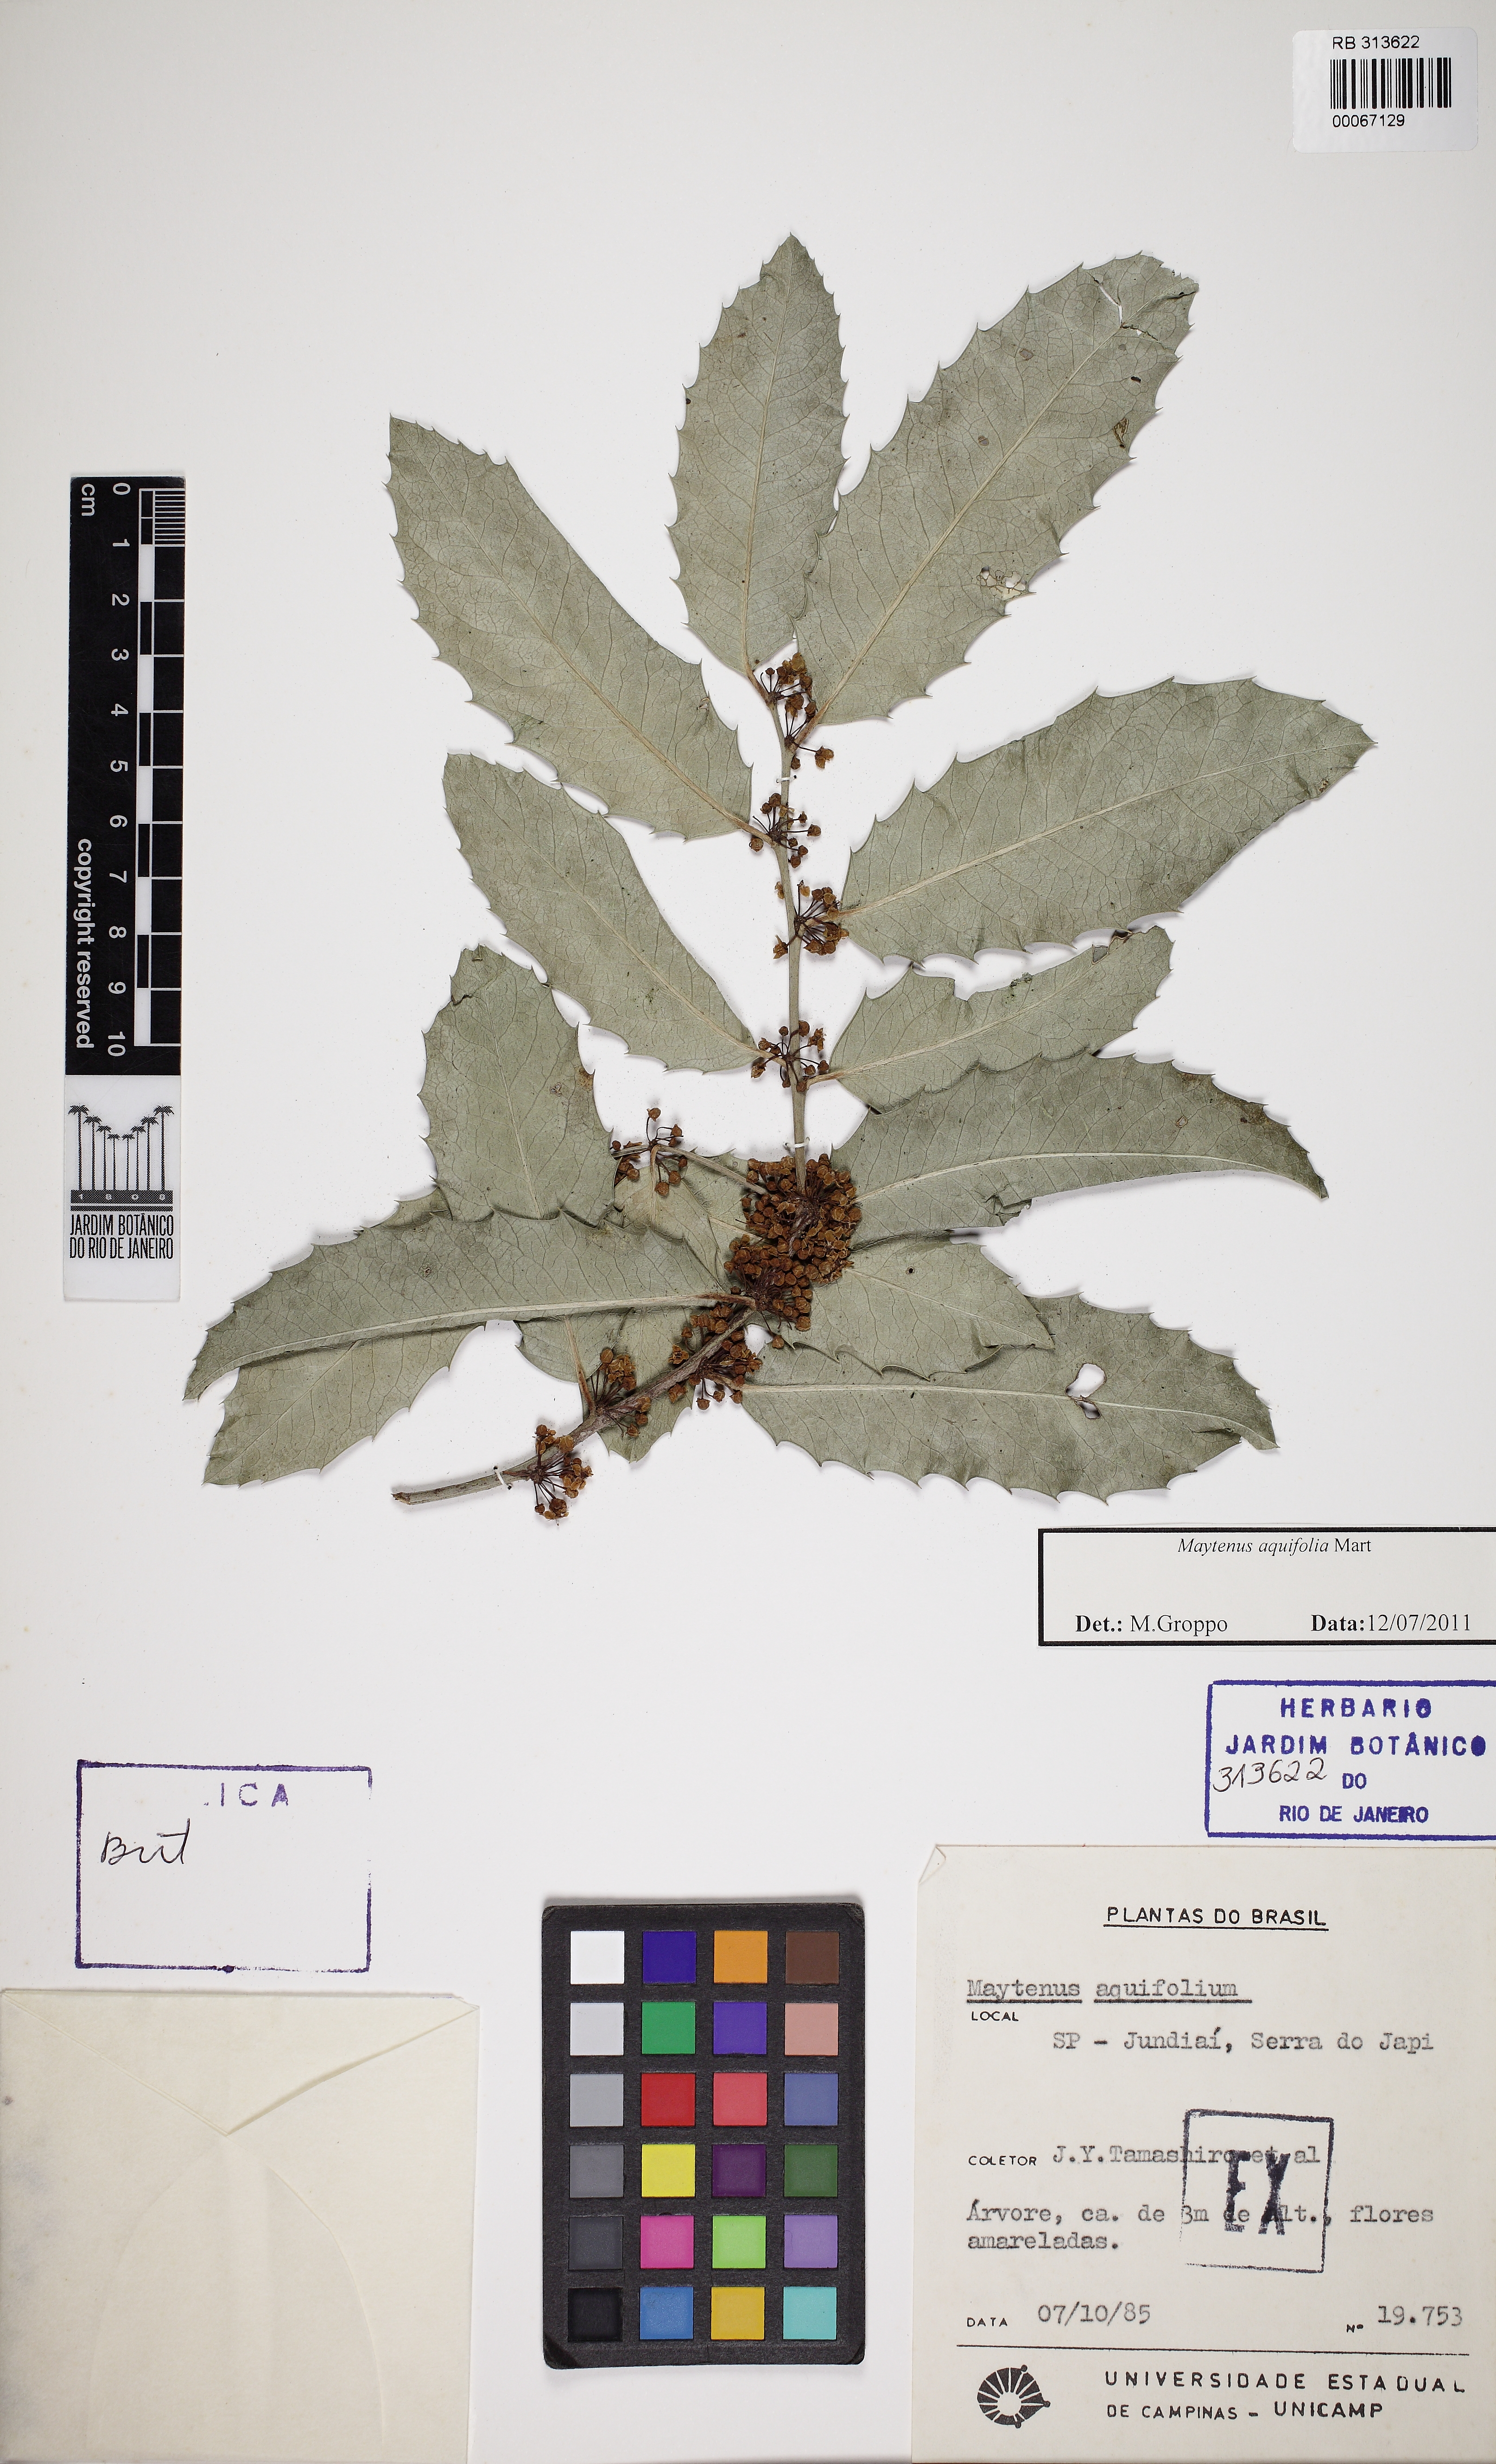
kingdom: Plantae
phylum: Tracheophyta
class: Magnoliopsida
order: Celastrales
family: Celastraceae
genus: Monteverdia
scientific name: Monteverdia aquifolium
